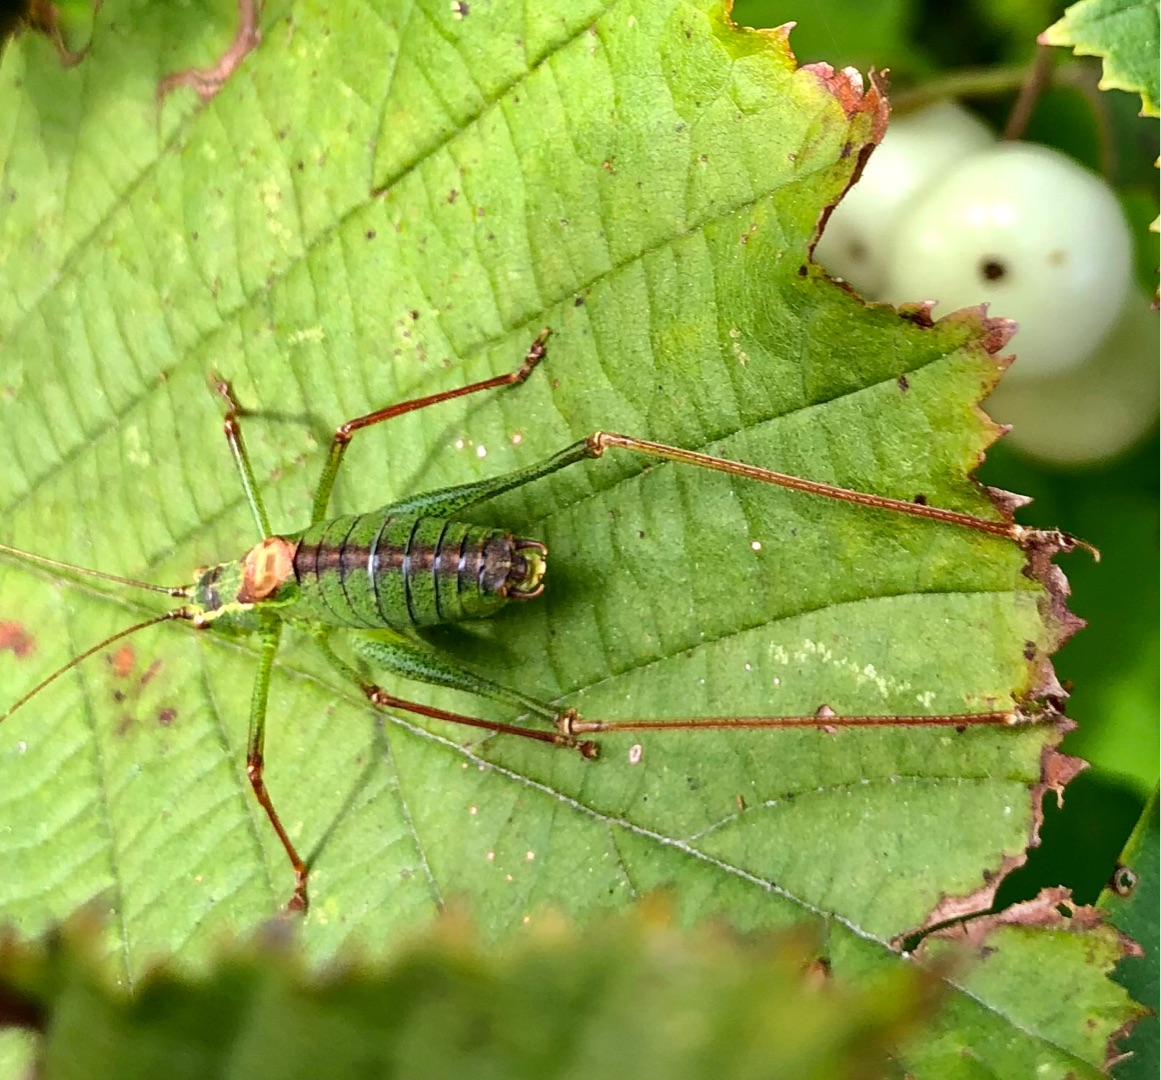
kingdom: Animalia
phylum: Arthropoda
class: Insecta
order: Orthoptera
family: Tettigoniidae
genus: Leptophyes
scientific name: Leptophyes punctatissima
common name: Krumknivgræshoppe
